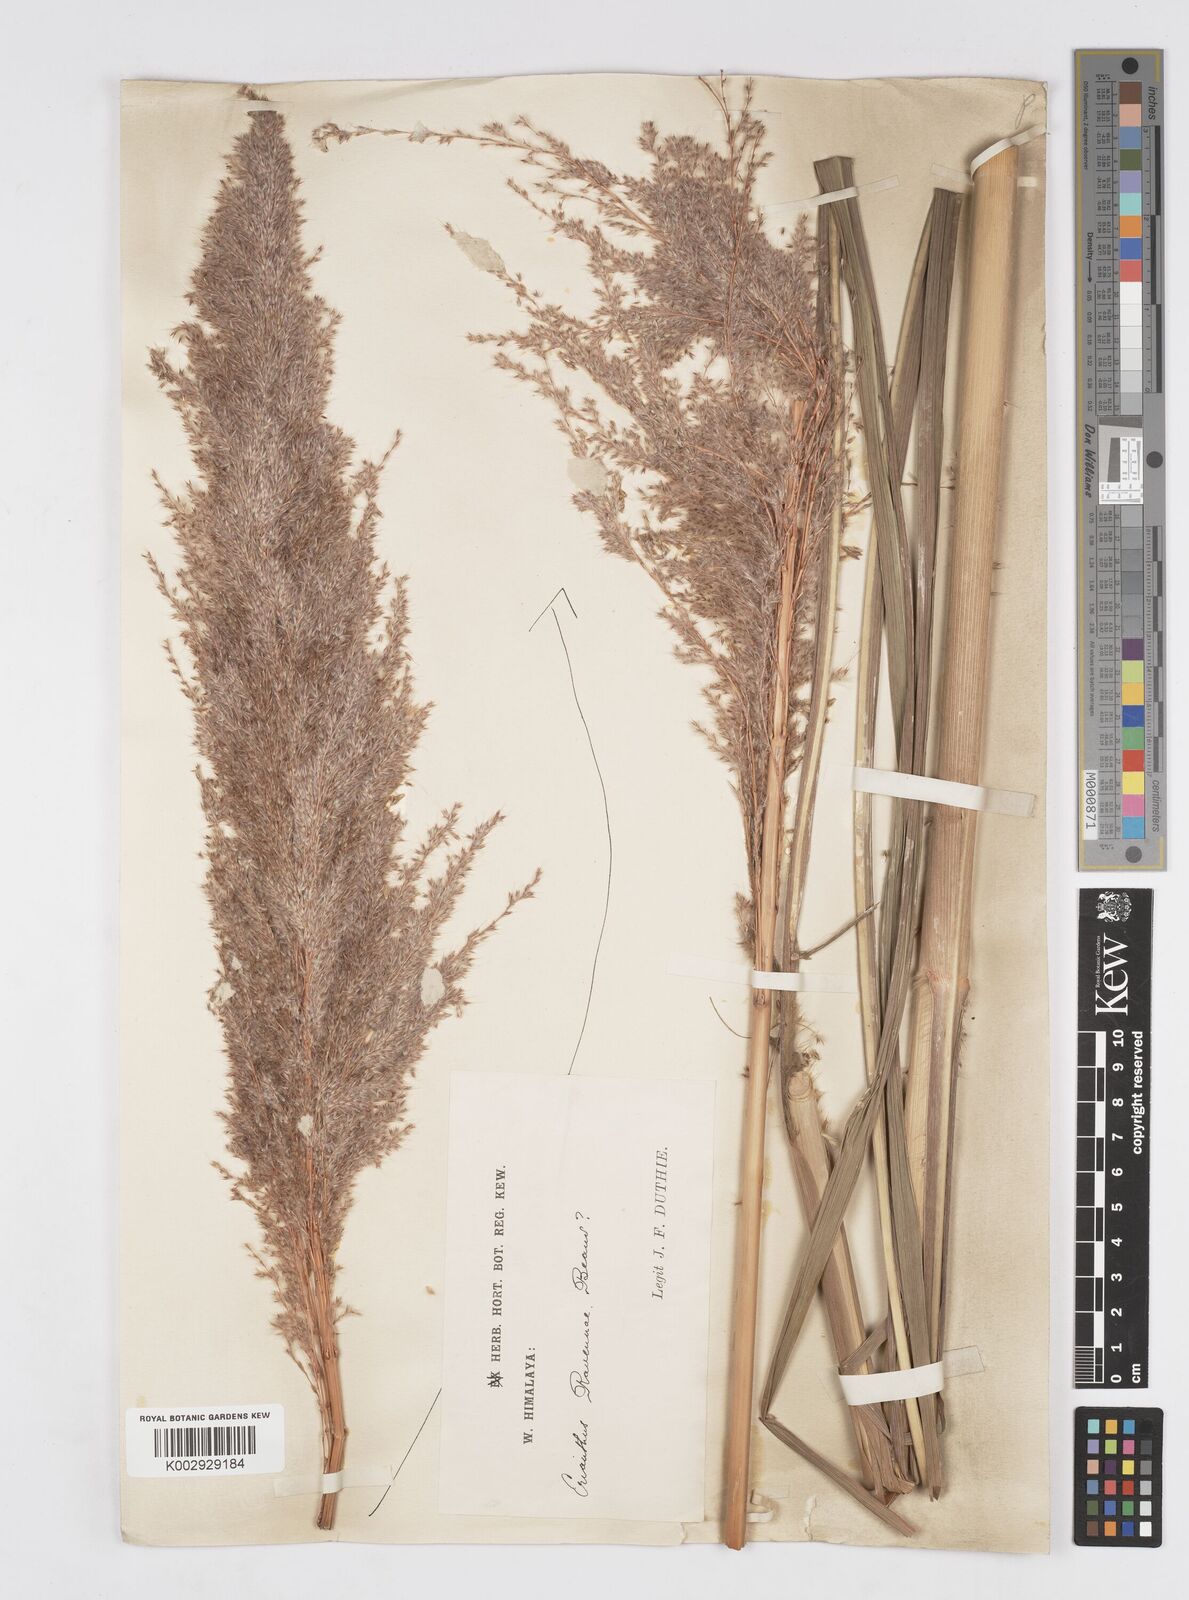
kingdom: Plantae
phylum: Tracheophyta
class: Liliopsida
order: Poales
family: Poaceae
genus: Tripidium
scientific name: Tripidium ravennae
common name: Ravenna grass
